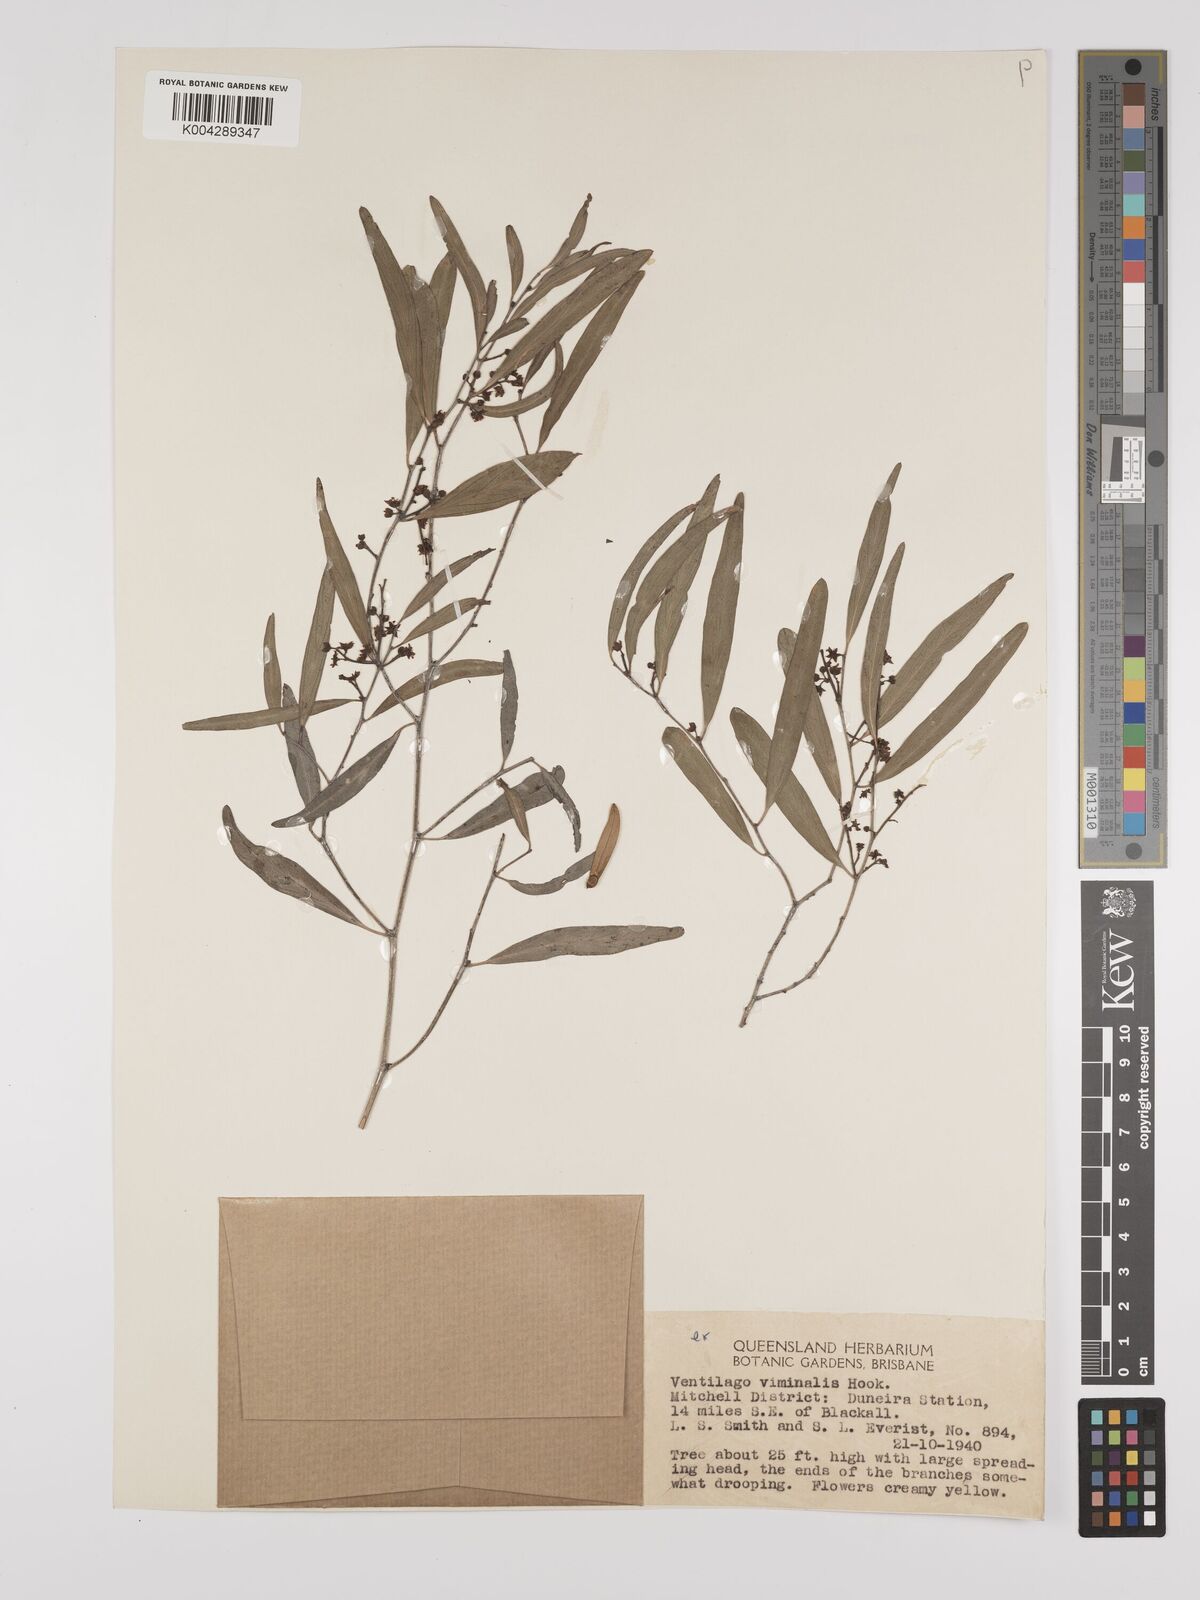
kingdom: Plantae
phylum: Tracheophyta
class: Magnoliopsida
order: Rosales
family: Rhamnaceae
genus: Ventilago
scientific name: Ventilago viminalis
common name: Medicine-bark
